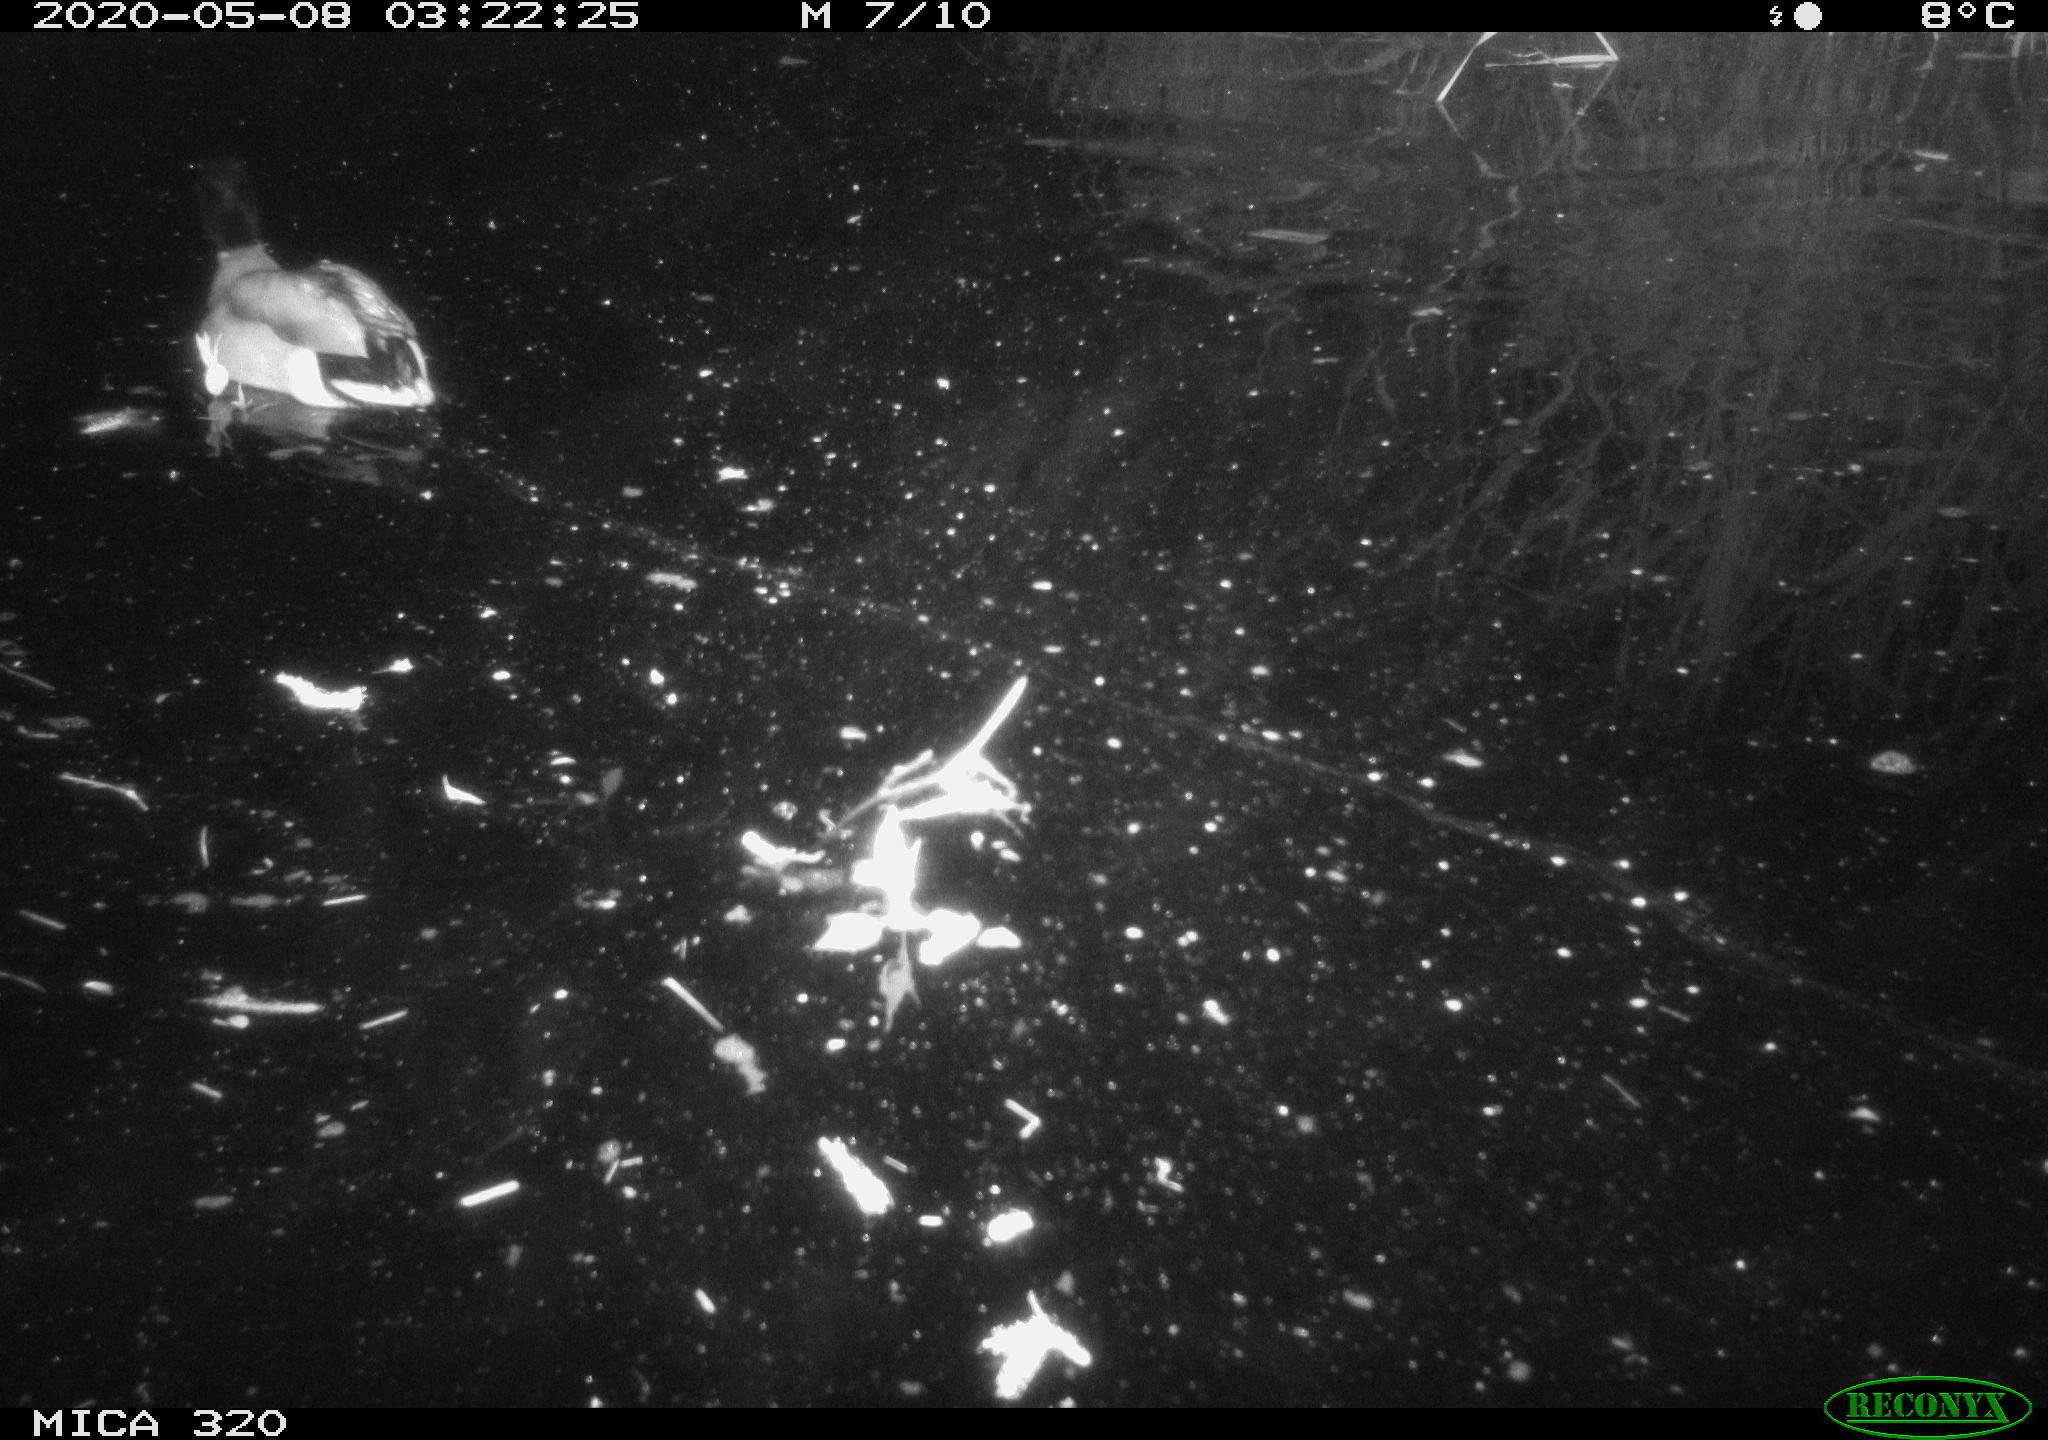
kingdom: Animalia
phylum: Chordata
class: Aves
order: Anseriformes
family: Anatidae
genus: Anas
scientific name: Anas platyrhynchos
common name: Mallard
